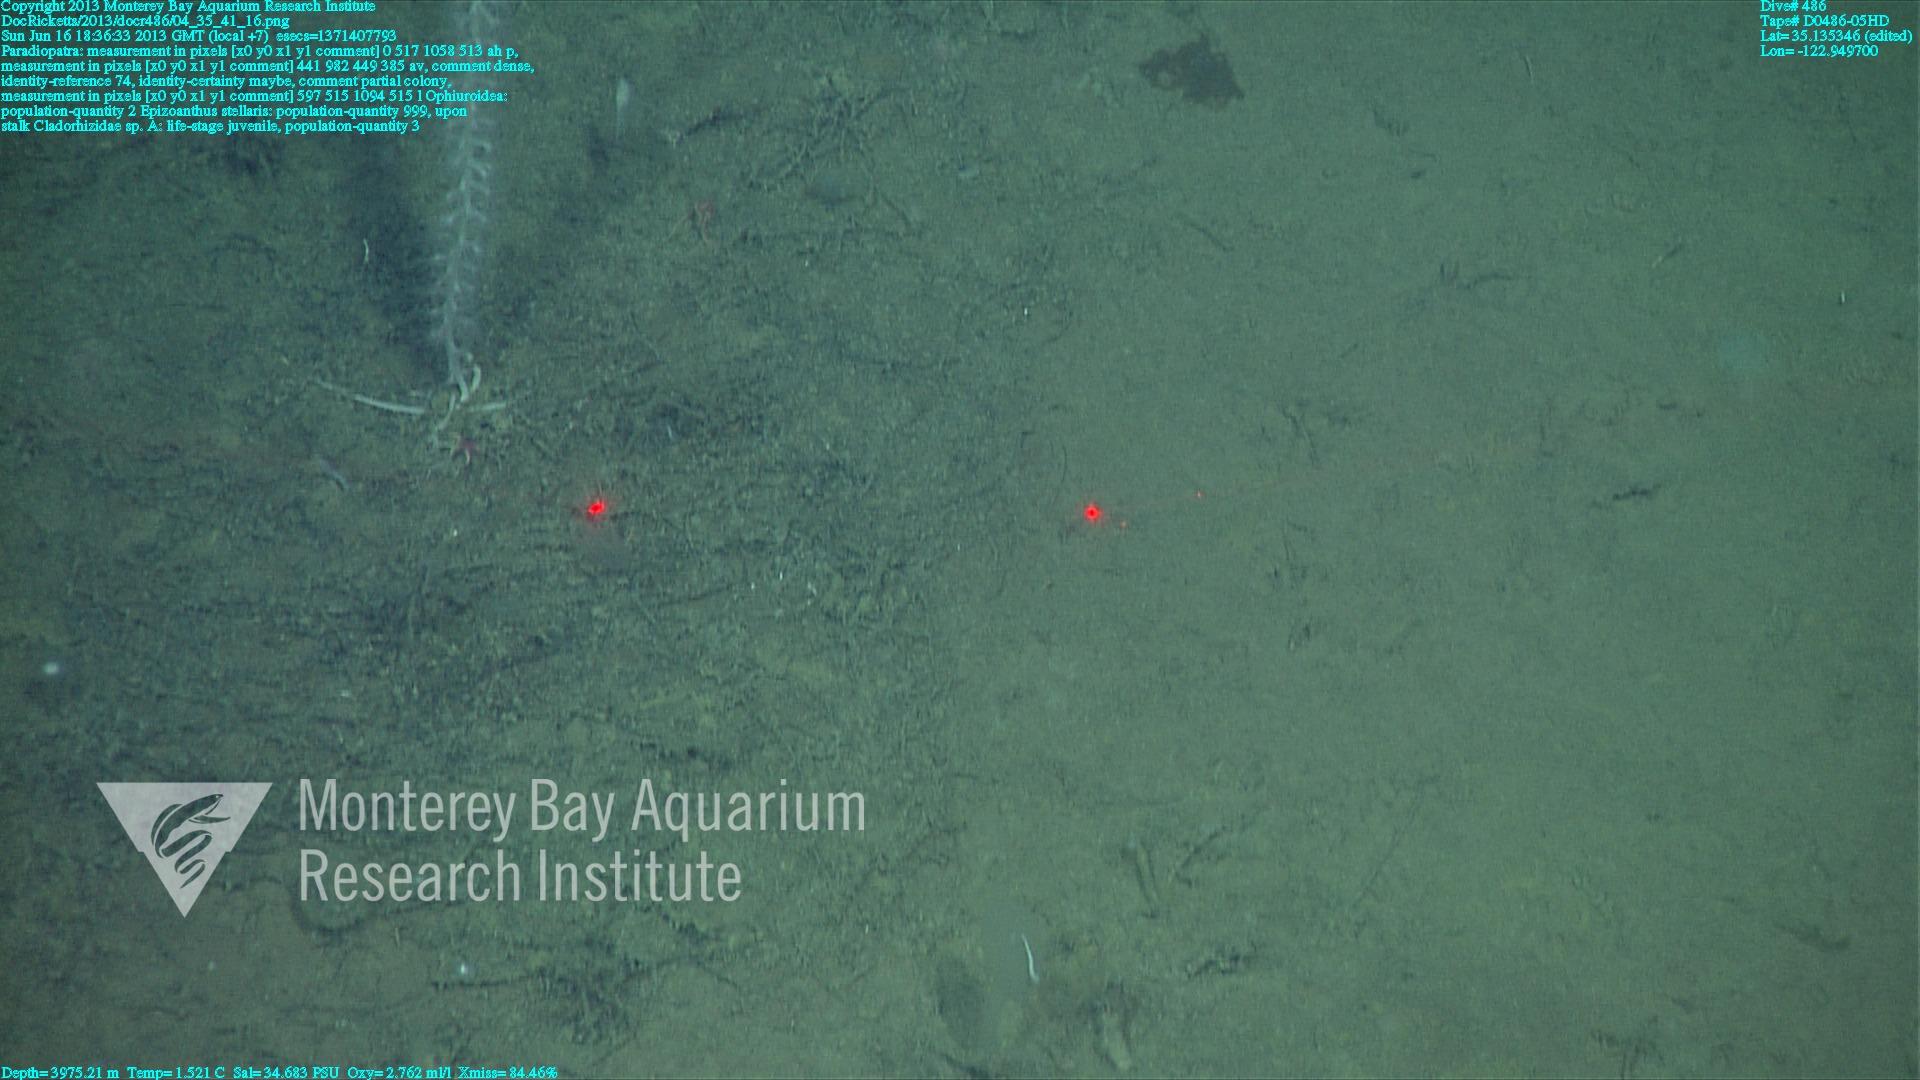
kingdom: Animalia
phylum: Porifera
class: Demospongiae
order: Poecilosclerida
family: Cladorhizidae
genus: Cladorhiza
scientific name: Cladorhiza
